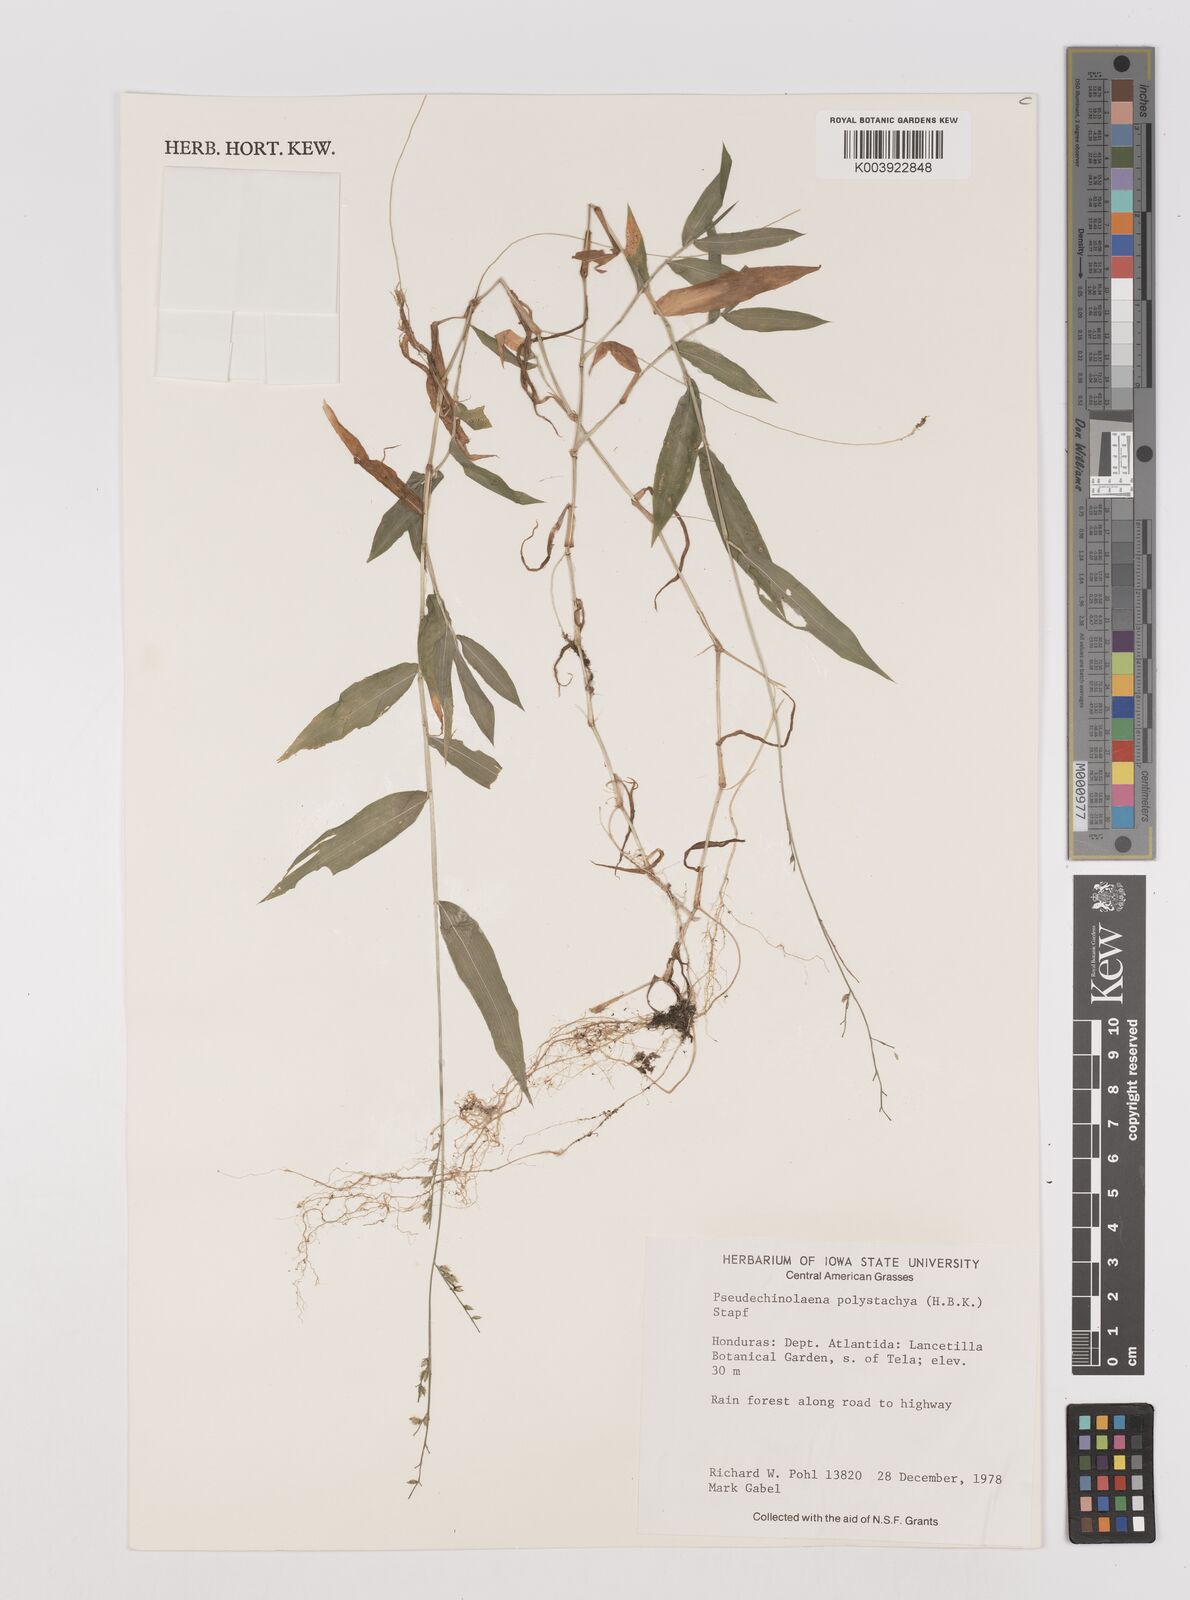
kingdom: Plantae
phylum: Tracheophyta
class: Liliopsida
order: Poales
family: Poaceae
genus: Pseudechinolaena
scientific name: Pseudechinolaena polystachya
